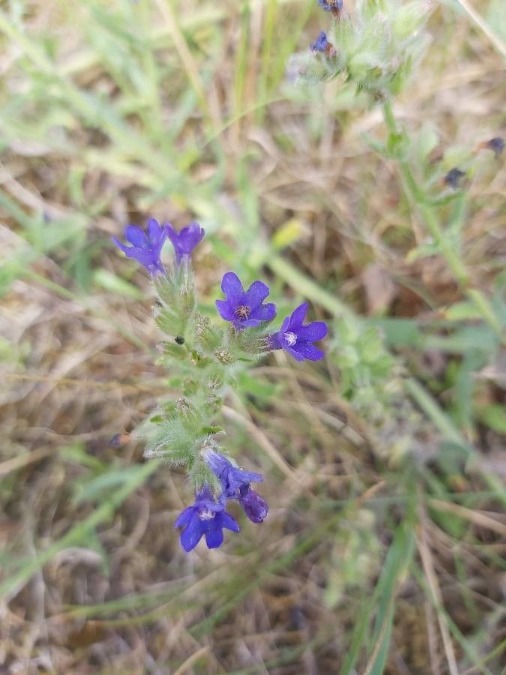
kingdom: Plantae
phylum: Tracheophyta
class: Magnoliopsida
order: Boraginales
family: Boraginaceae
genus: Anchusa
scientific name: Anchusa officinalis
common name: Læge-oksetunge
